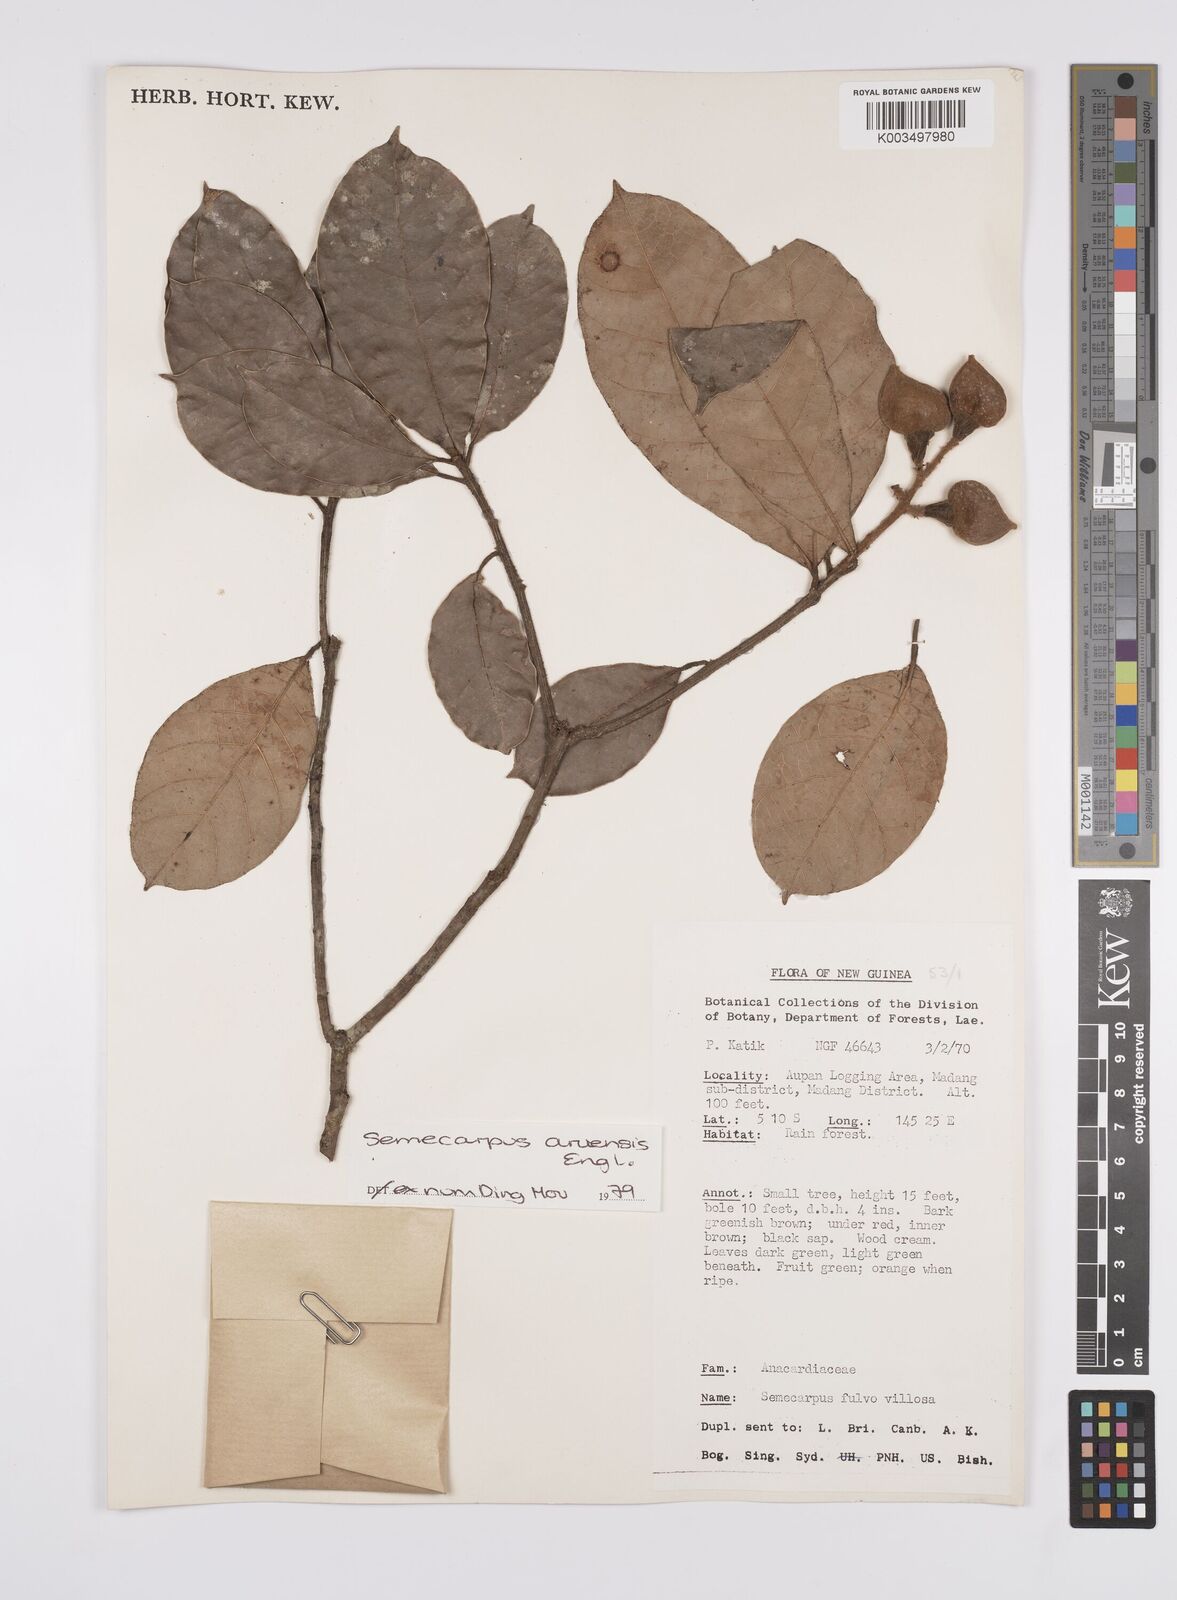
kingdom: Plantae
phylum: Tracheophyta
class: Magnoliopsida
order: Sapindales
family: Anacardiaceae
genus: Semecarpus
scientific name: Semecarpus aruensis
